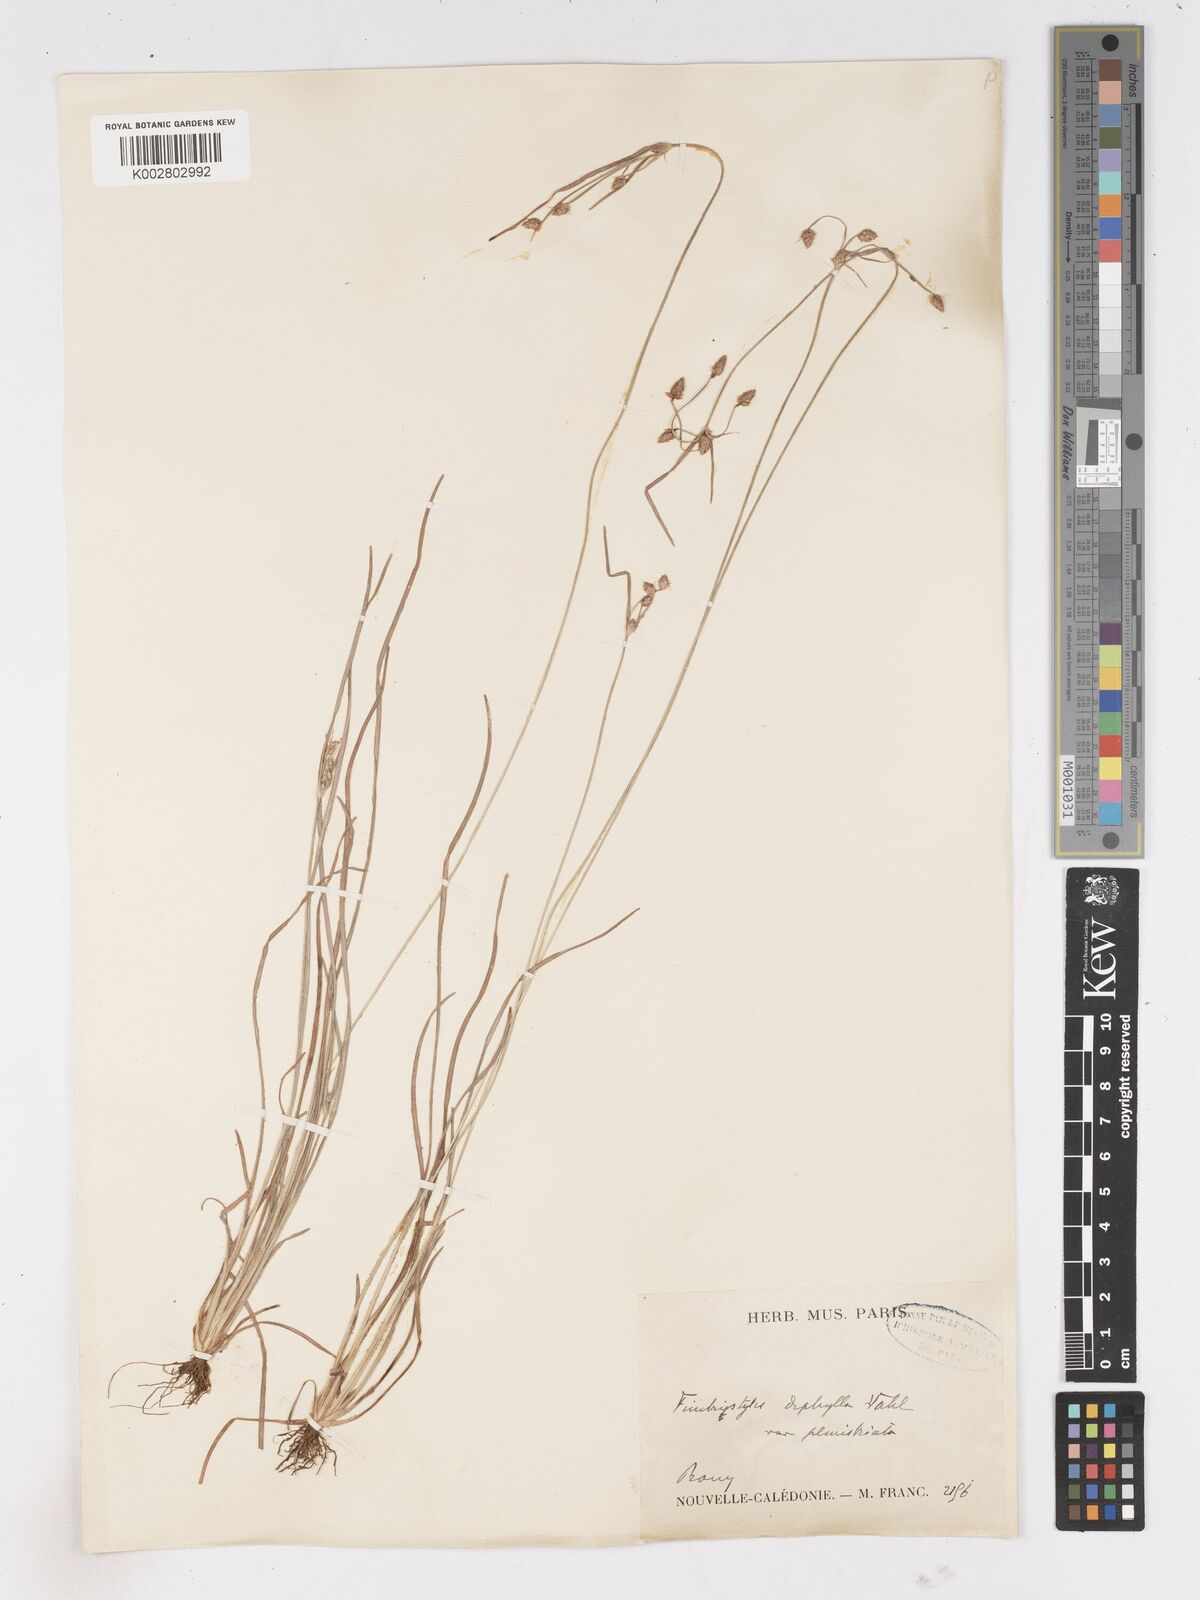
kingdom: Plantae
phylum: Tracheophyta
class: Liliopsida
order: Poales
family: Cyperaceae
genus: Fimbristylis
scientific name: Fimbristylis dichotoma
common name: Forked fimbry
